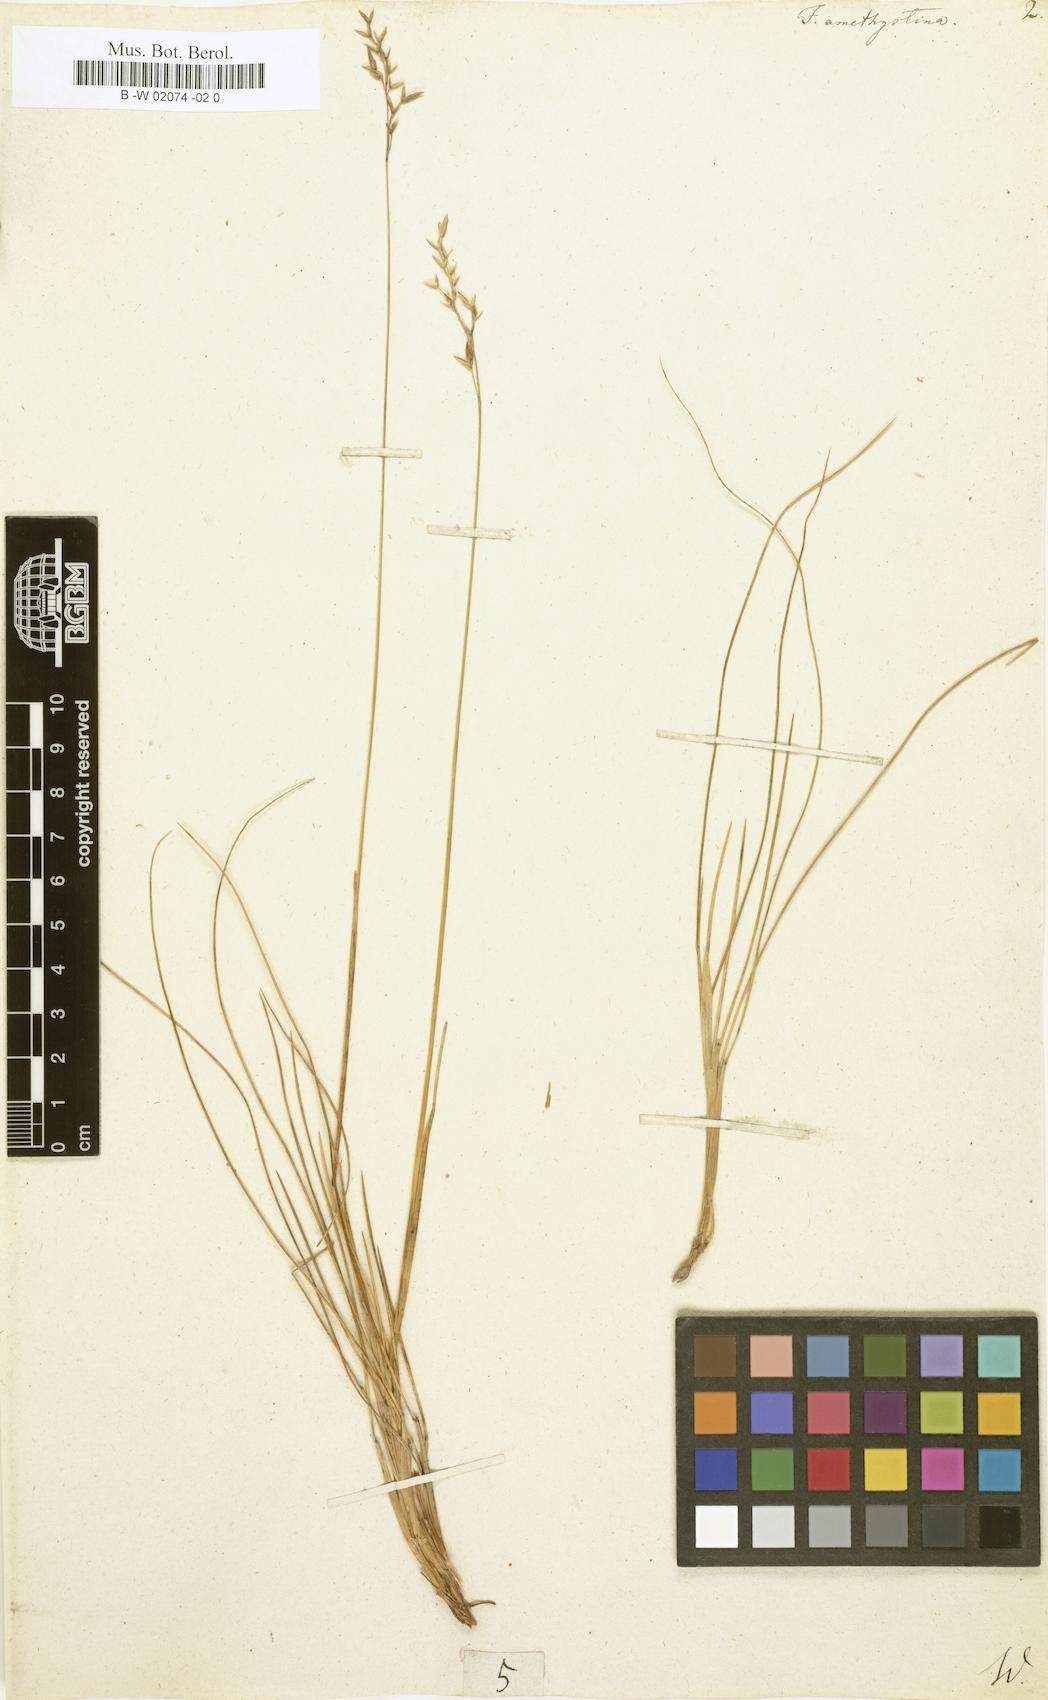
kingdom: Plantae
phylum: Tracheophyta
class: Liliopsida
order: Poales
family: Poaceae
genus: Festuca
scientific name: Festuca amethystina
